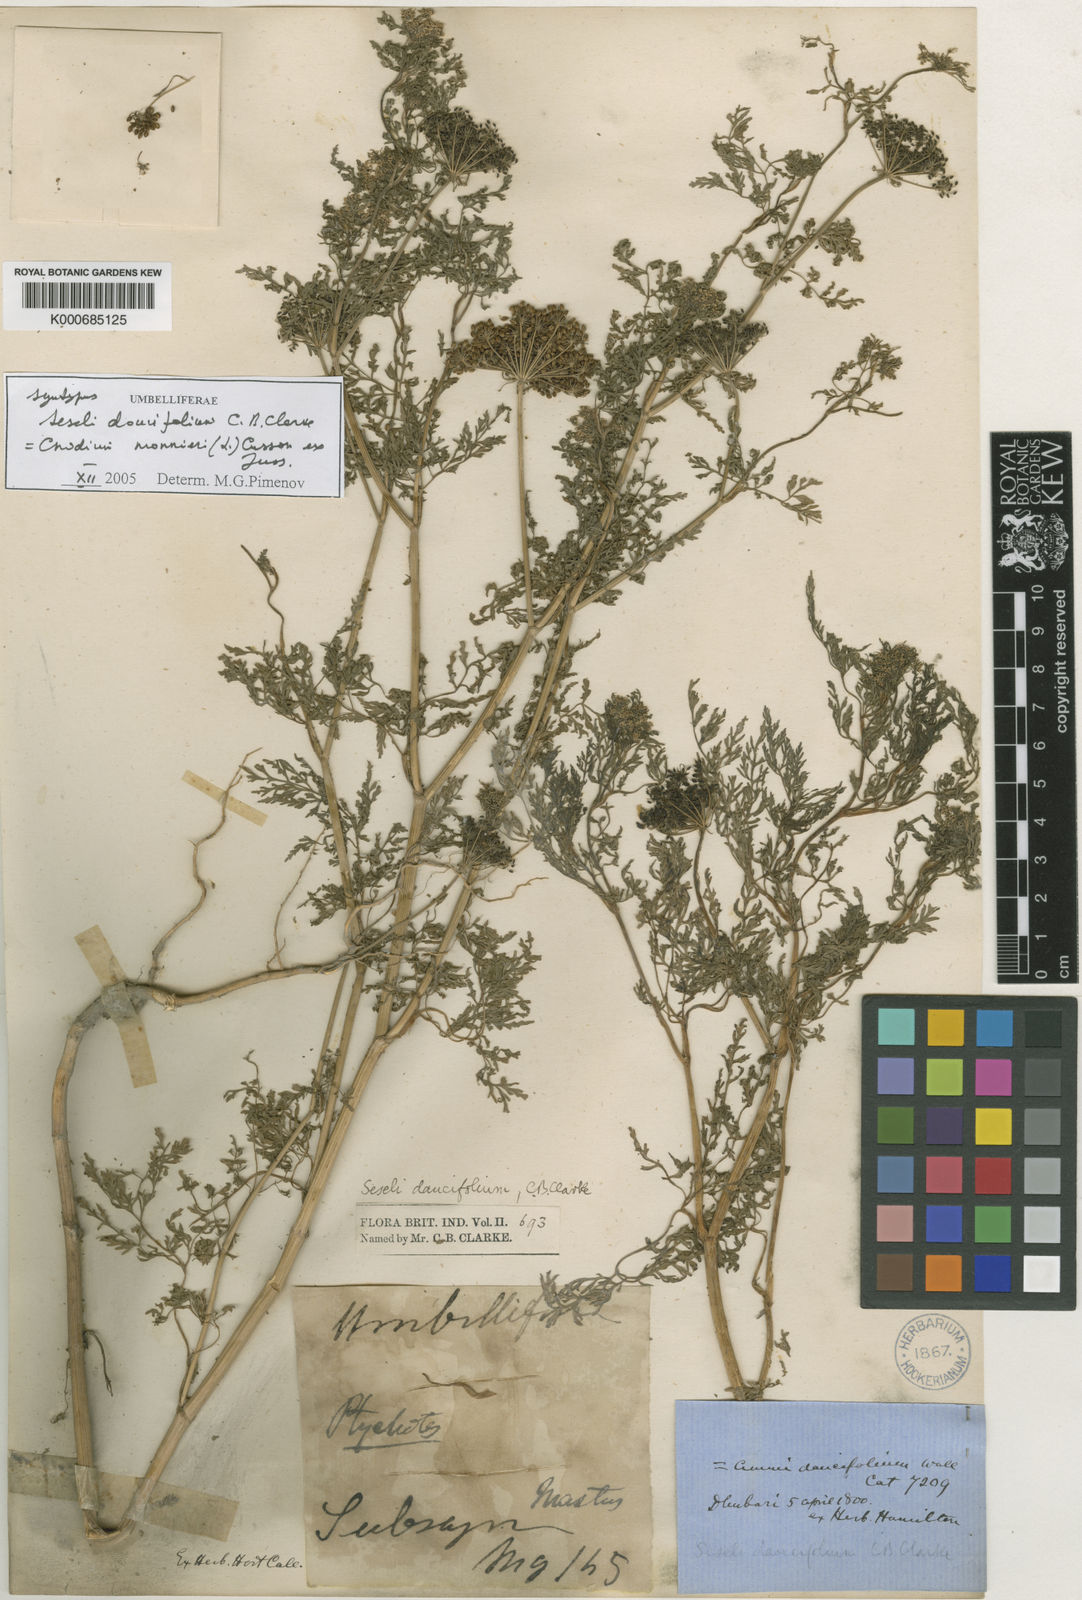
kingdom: Plantae
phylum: Tracheophyta
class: Magnoliopsida
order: Apiales
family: Apiaceae
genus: Cnidium
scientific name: Cnidium monnieri
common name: Monnier's snowparsley
